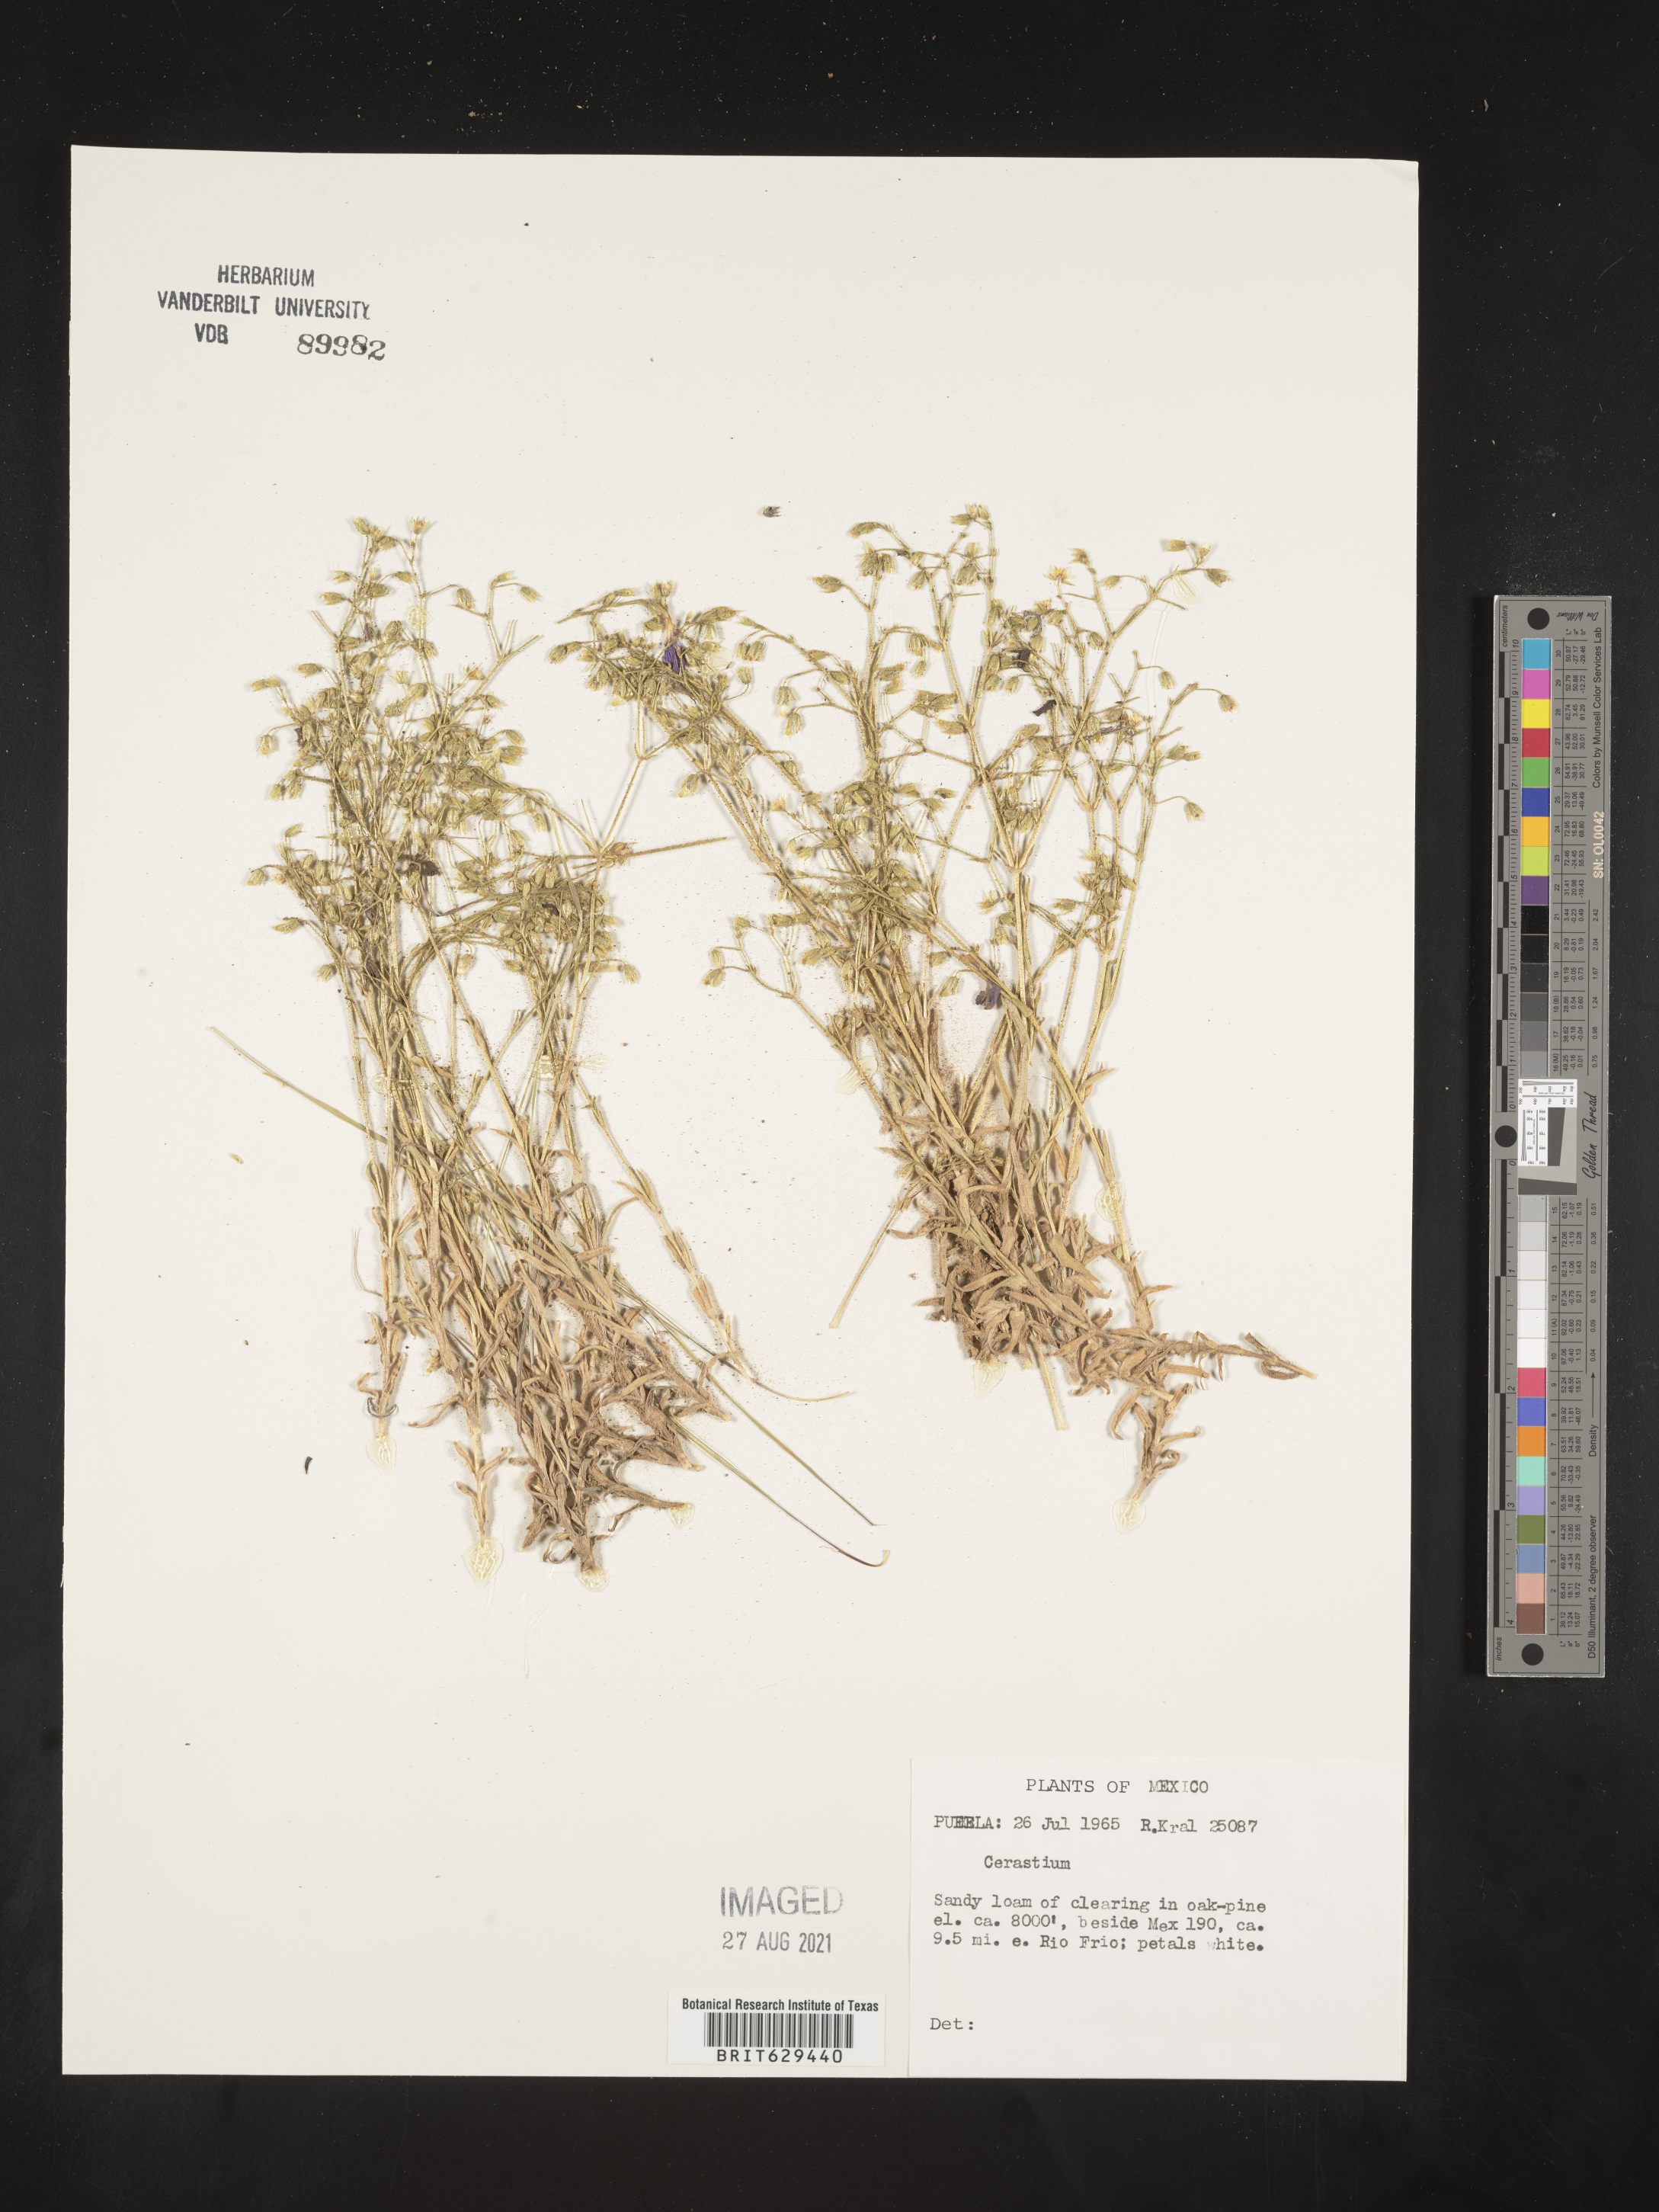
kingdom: Plantae
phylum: Tracheophyta
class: Magnoliopsida
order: Caryophyllales
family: Caryophyllaceae
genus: Cerastium
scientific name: Cerastium
